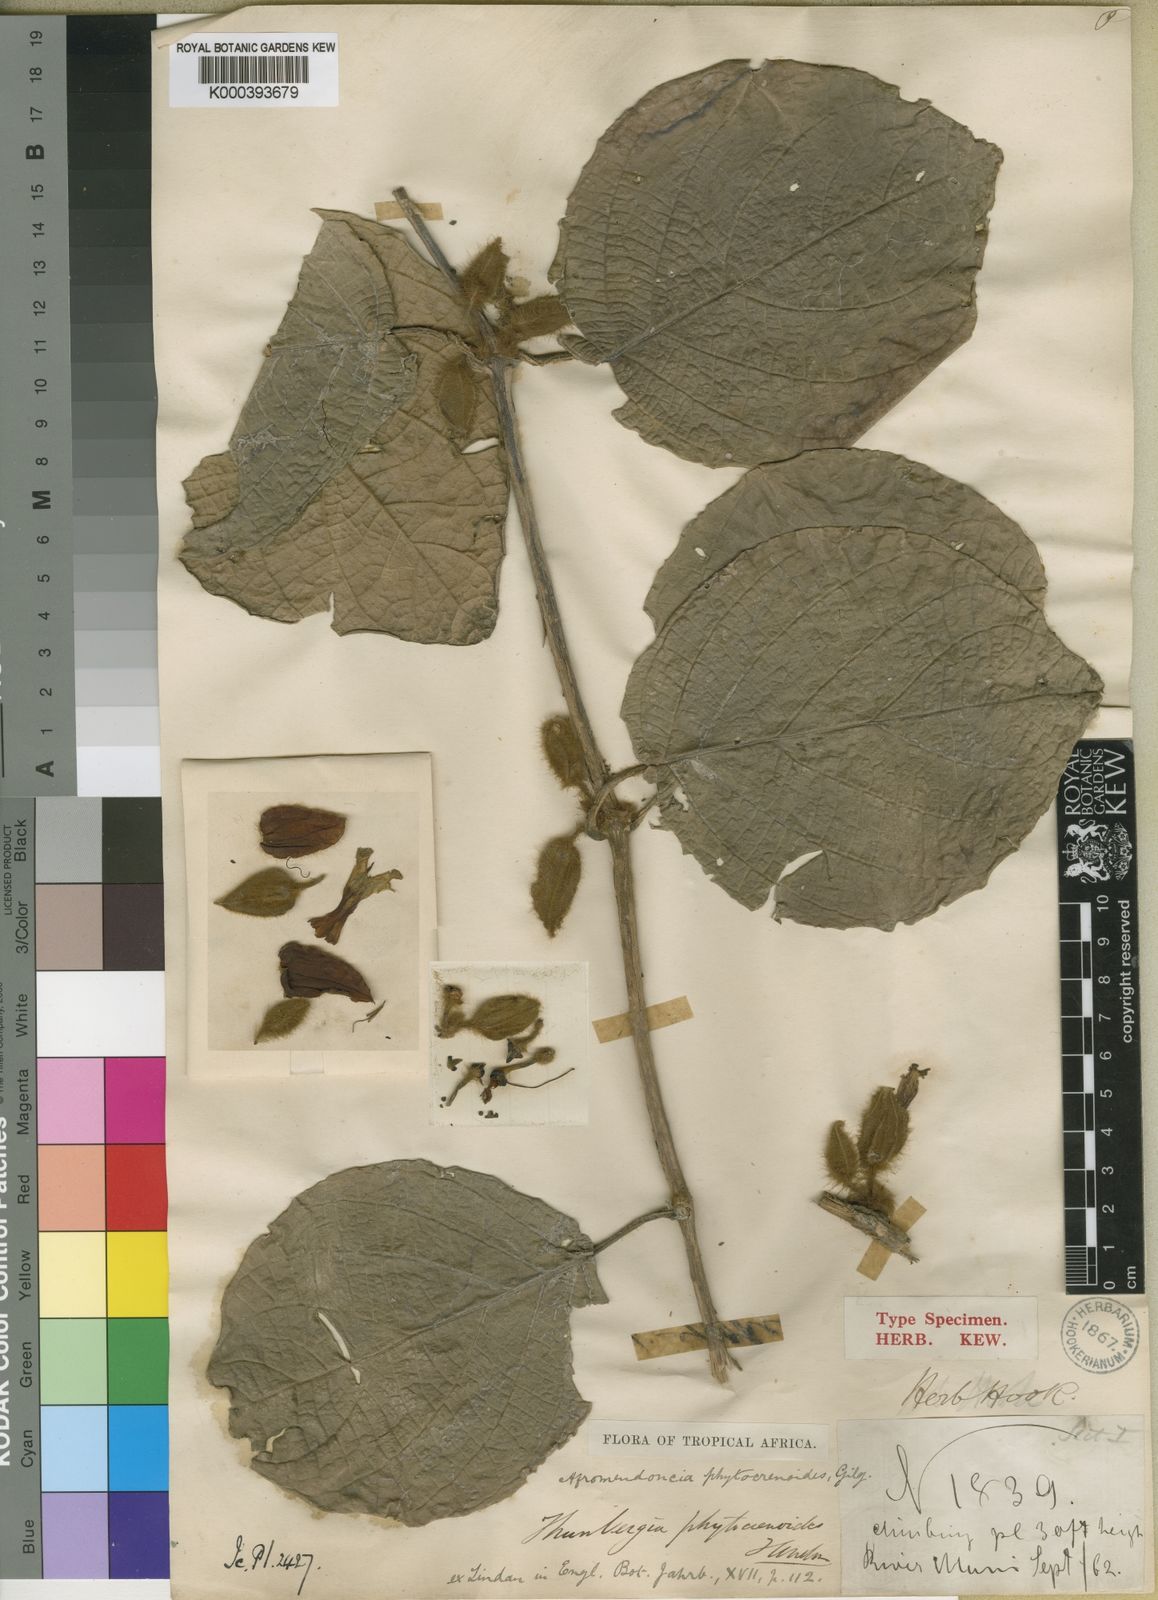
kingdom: Plantae
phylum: Tracheophyta
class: Magnoliopsida
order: Lamiales
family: Acanthaceae
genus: Mendoncia
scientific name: Mendoncia phytocrenoides
